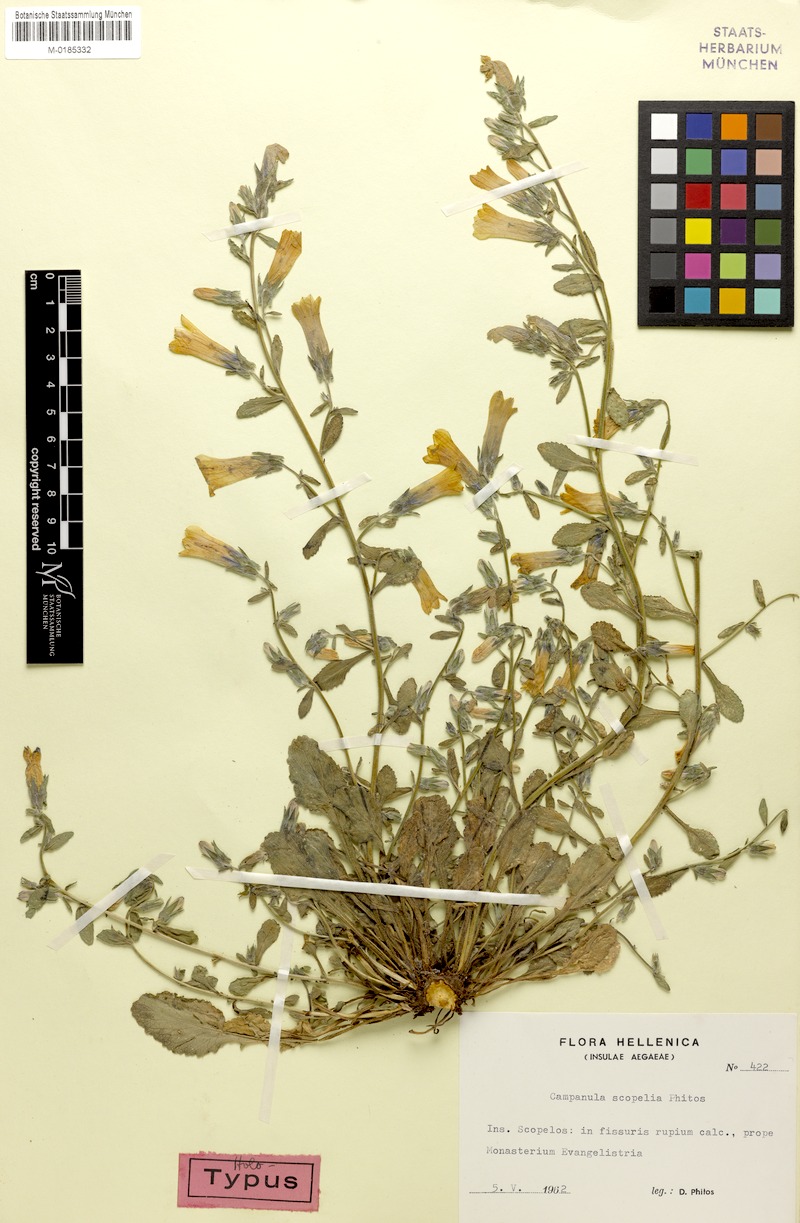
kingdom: Plantae
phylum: Tracheophyta
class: Magnoliopsida
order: Asterales
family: Campanulaceae
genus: Campanula
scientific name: Campanula scopelia
